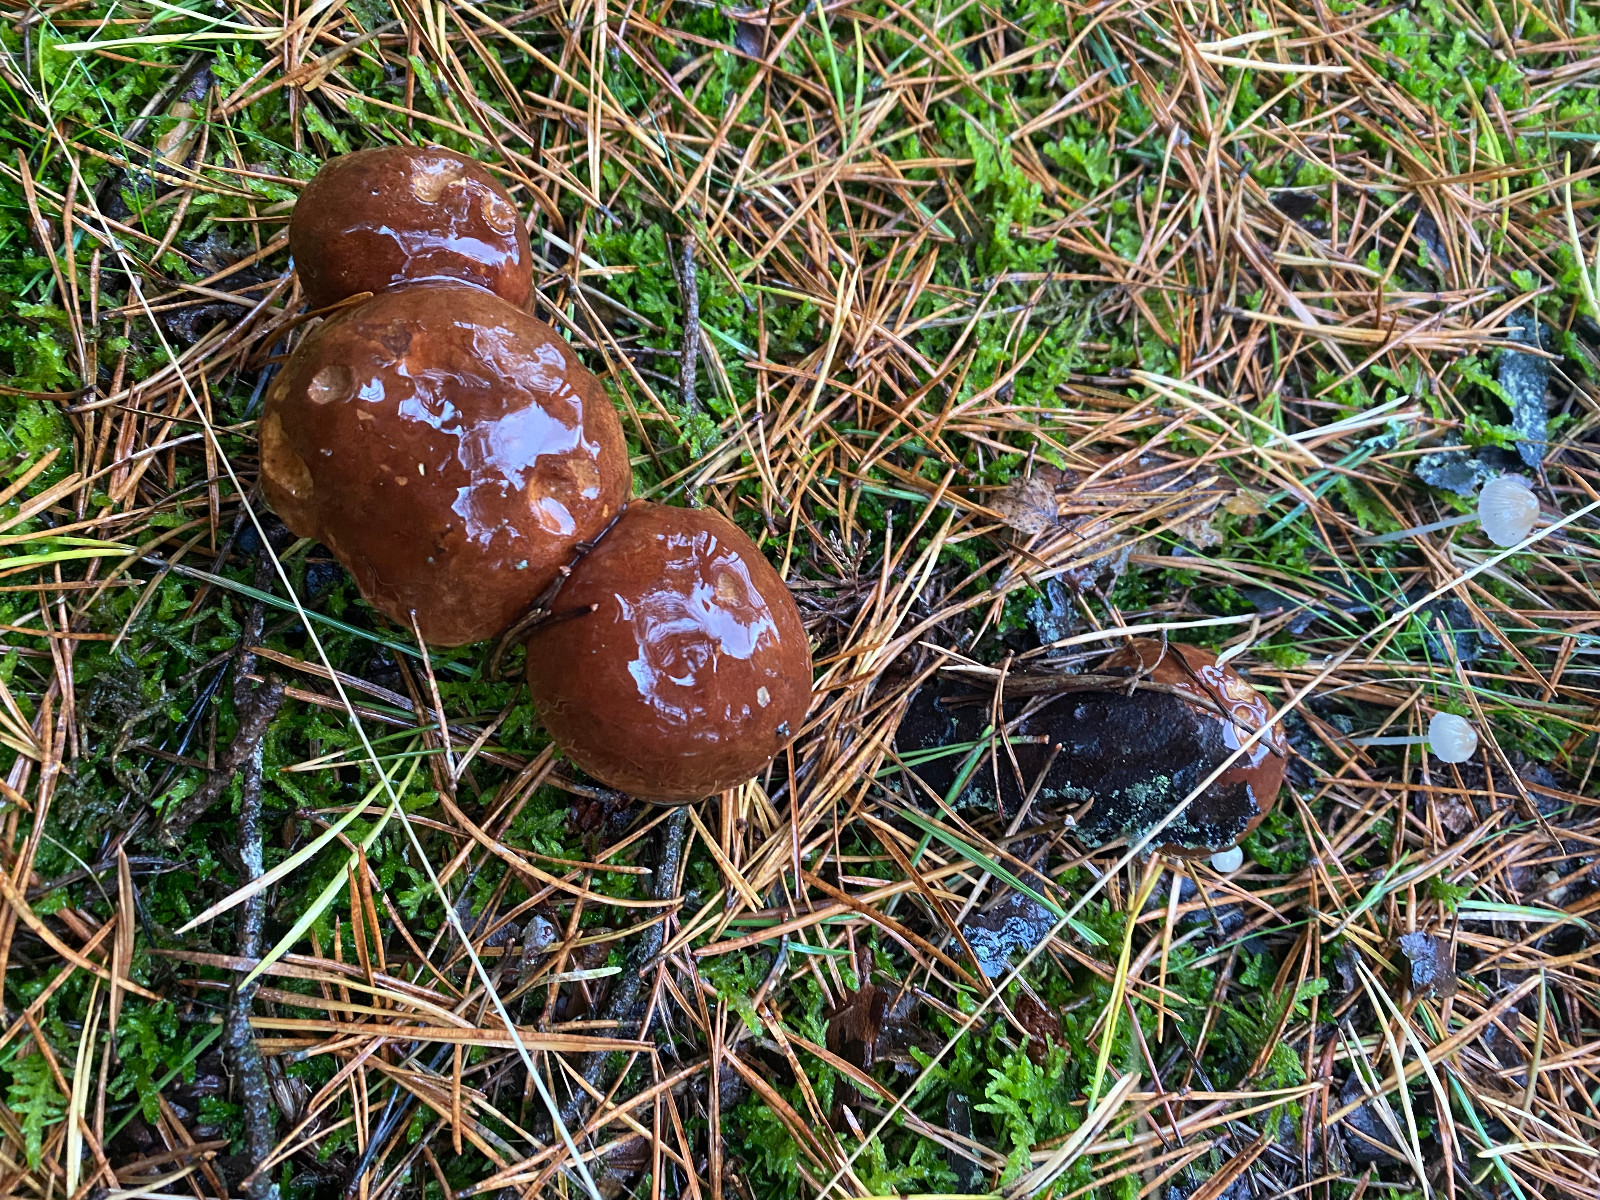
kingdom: Fungi
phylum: Basidiomycota
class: Agaricomycetes
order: Boletales
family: Boletaceae
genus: Imleria
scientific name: Imleria badia
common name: brunstokket rørhat
